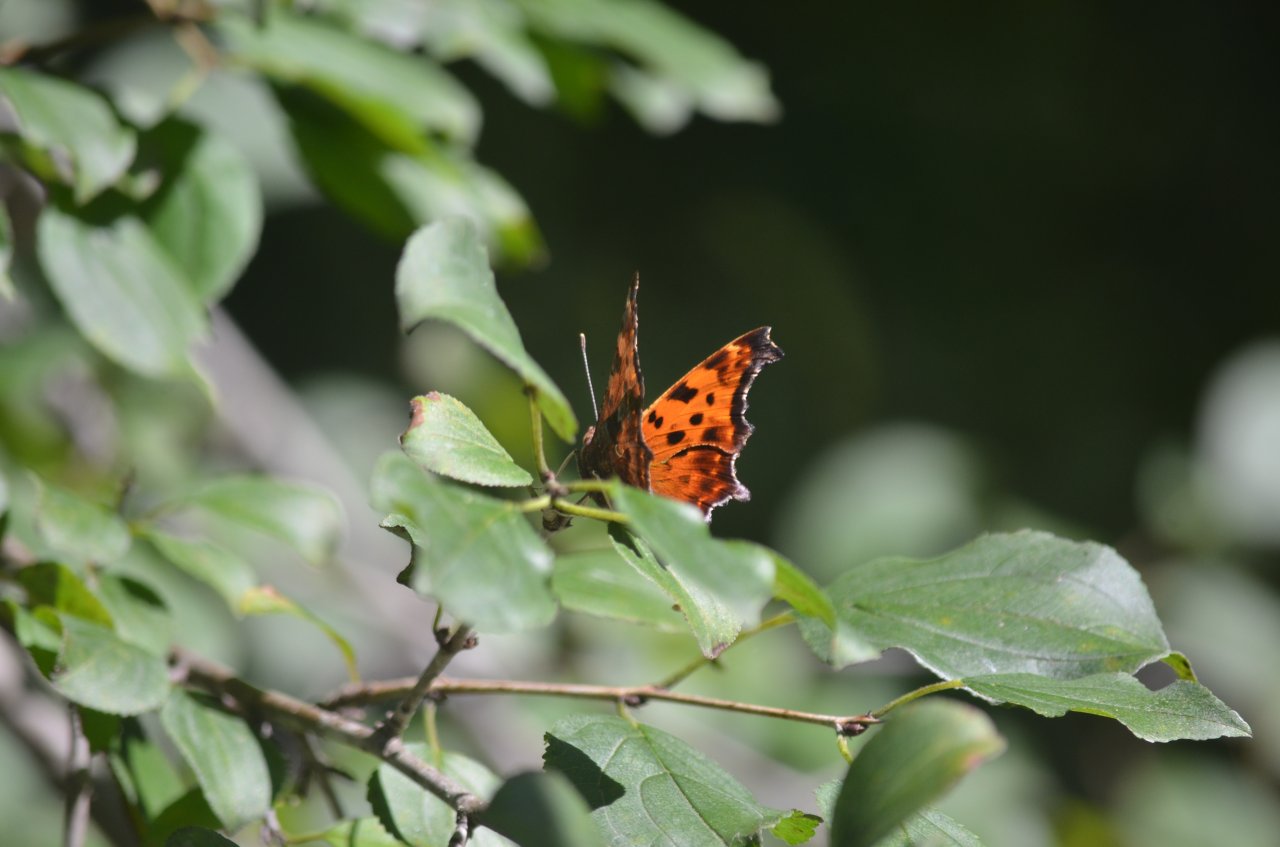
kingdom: Animalia
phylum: Arthropoda
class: Insecta
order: Lepidoptera
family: Nymphalidae
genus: Polygonia
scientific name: Polygonia comma
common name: Eastern Comma
